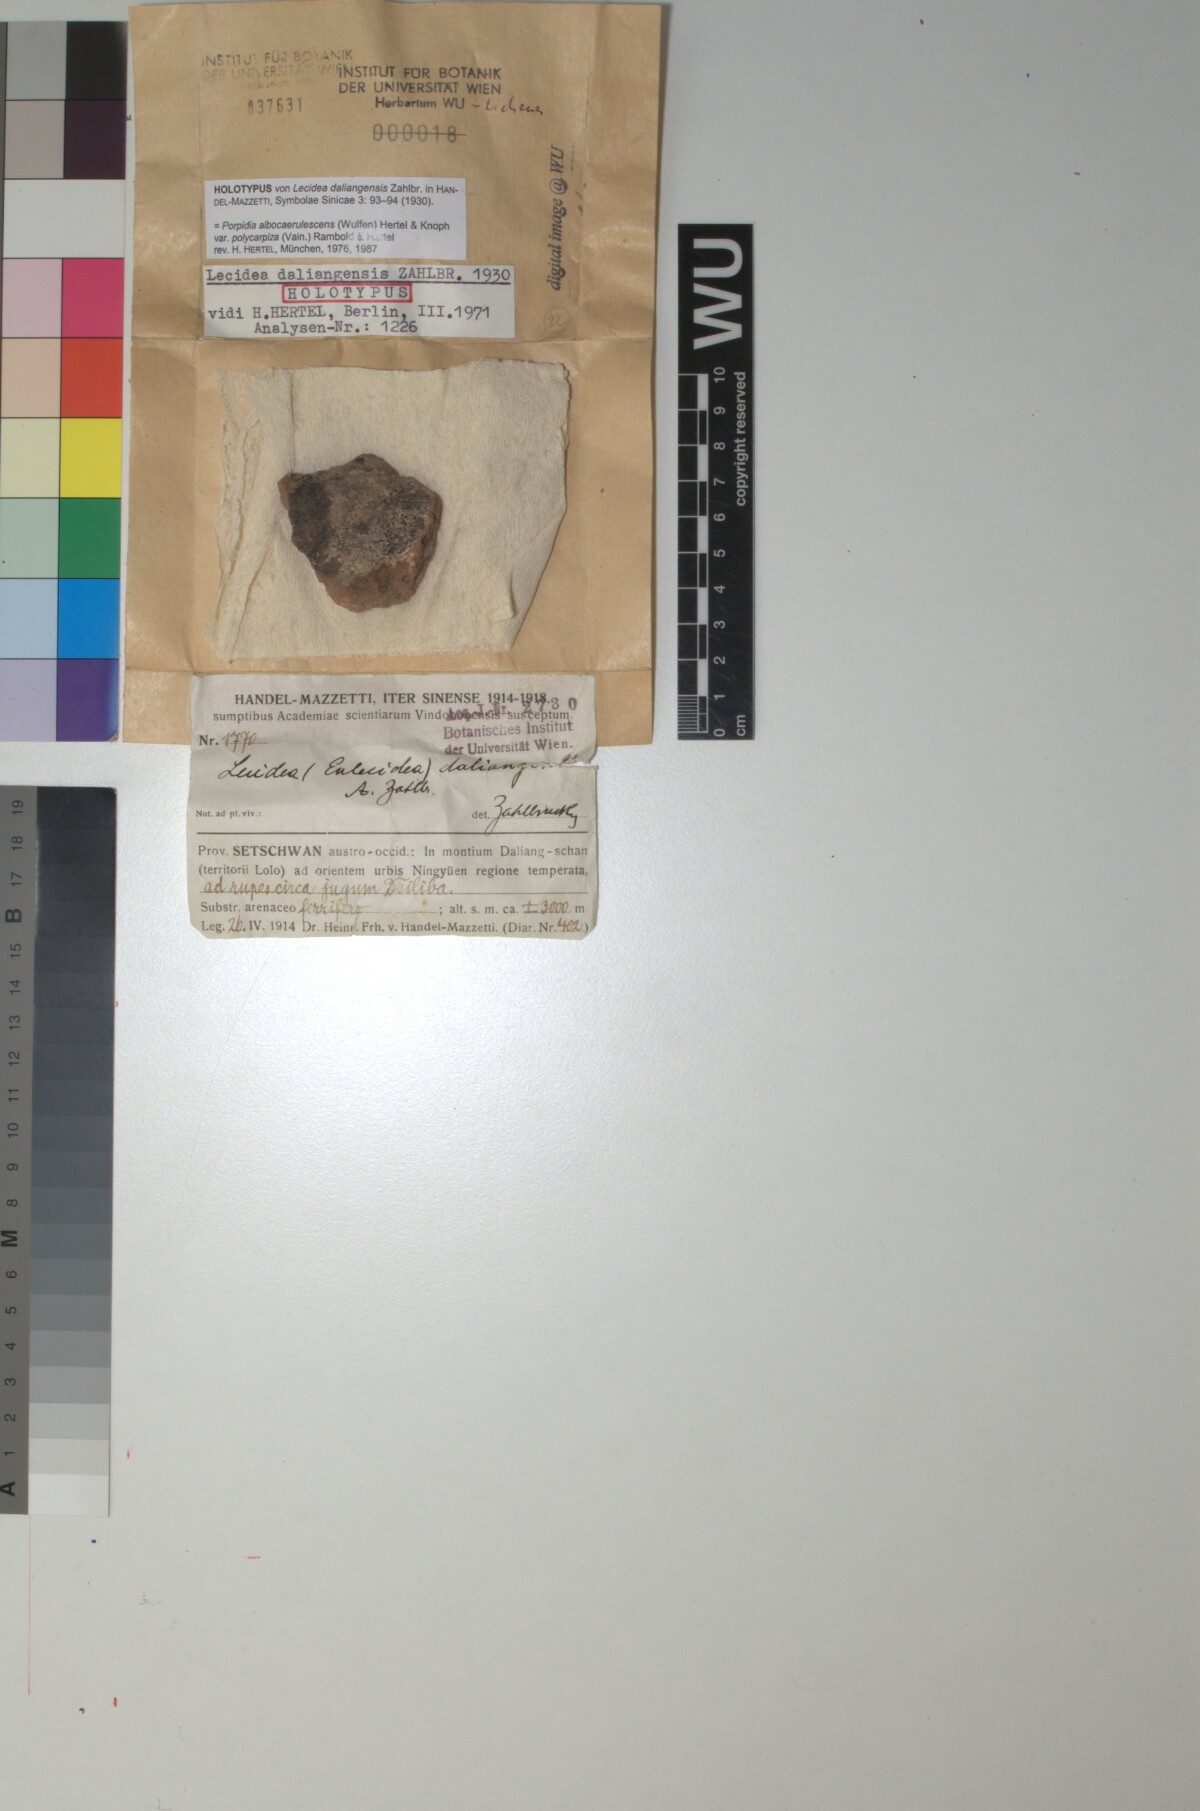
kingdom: Fungi
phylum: Ascomycota
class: Lecanoromycetes
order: Lecideales
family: Lecideaceae
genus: Lecidea
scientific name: Lecidea
